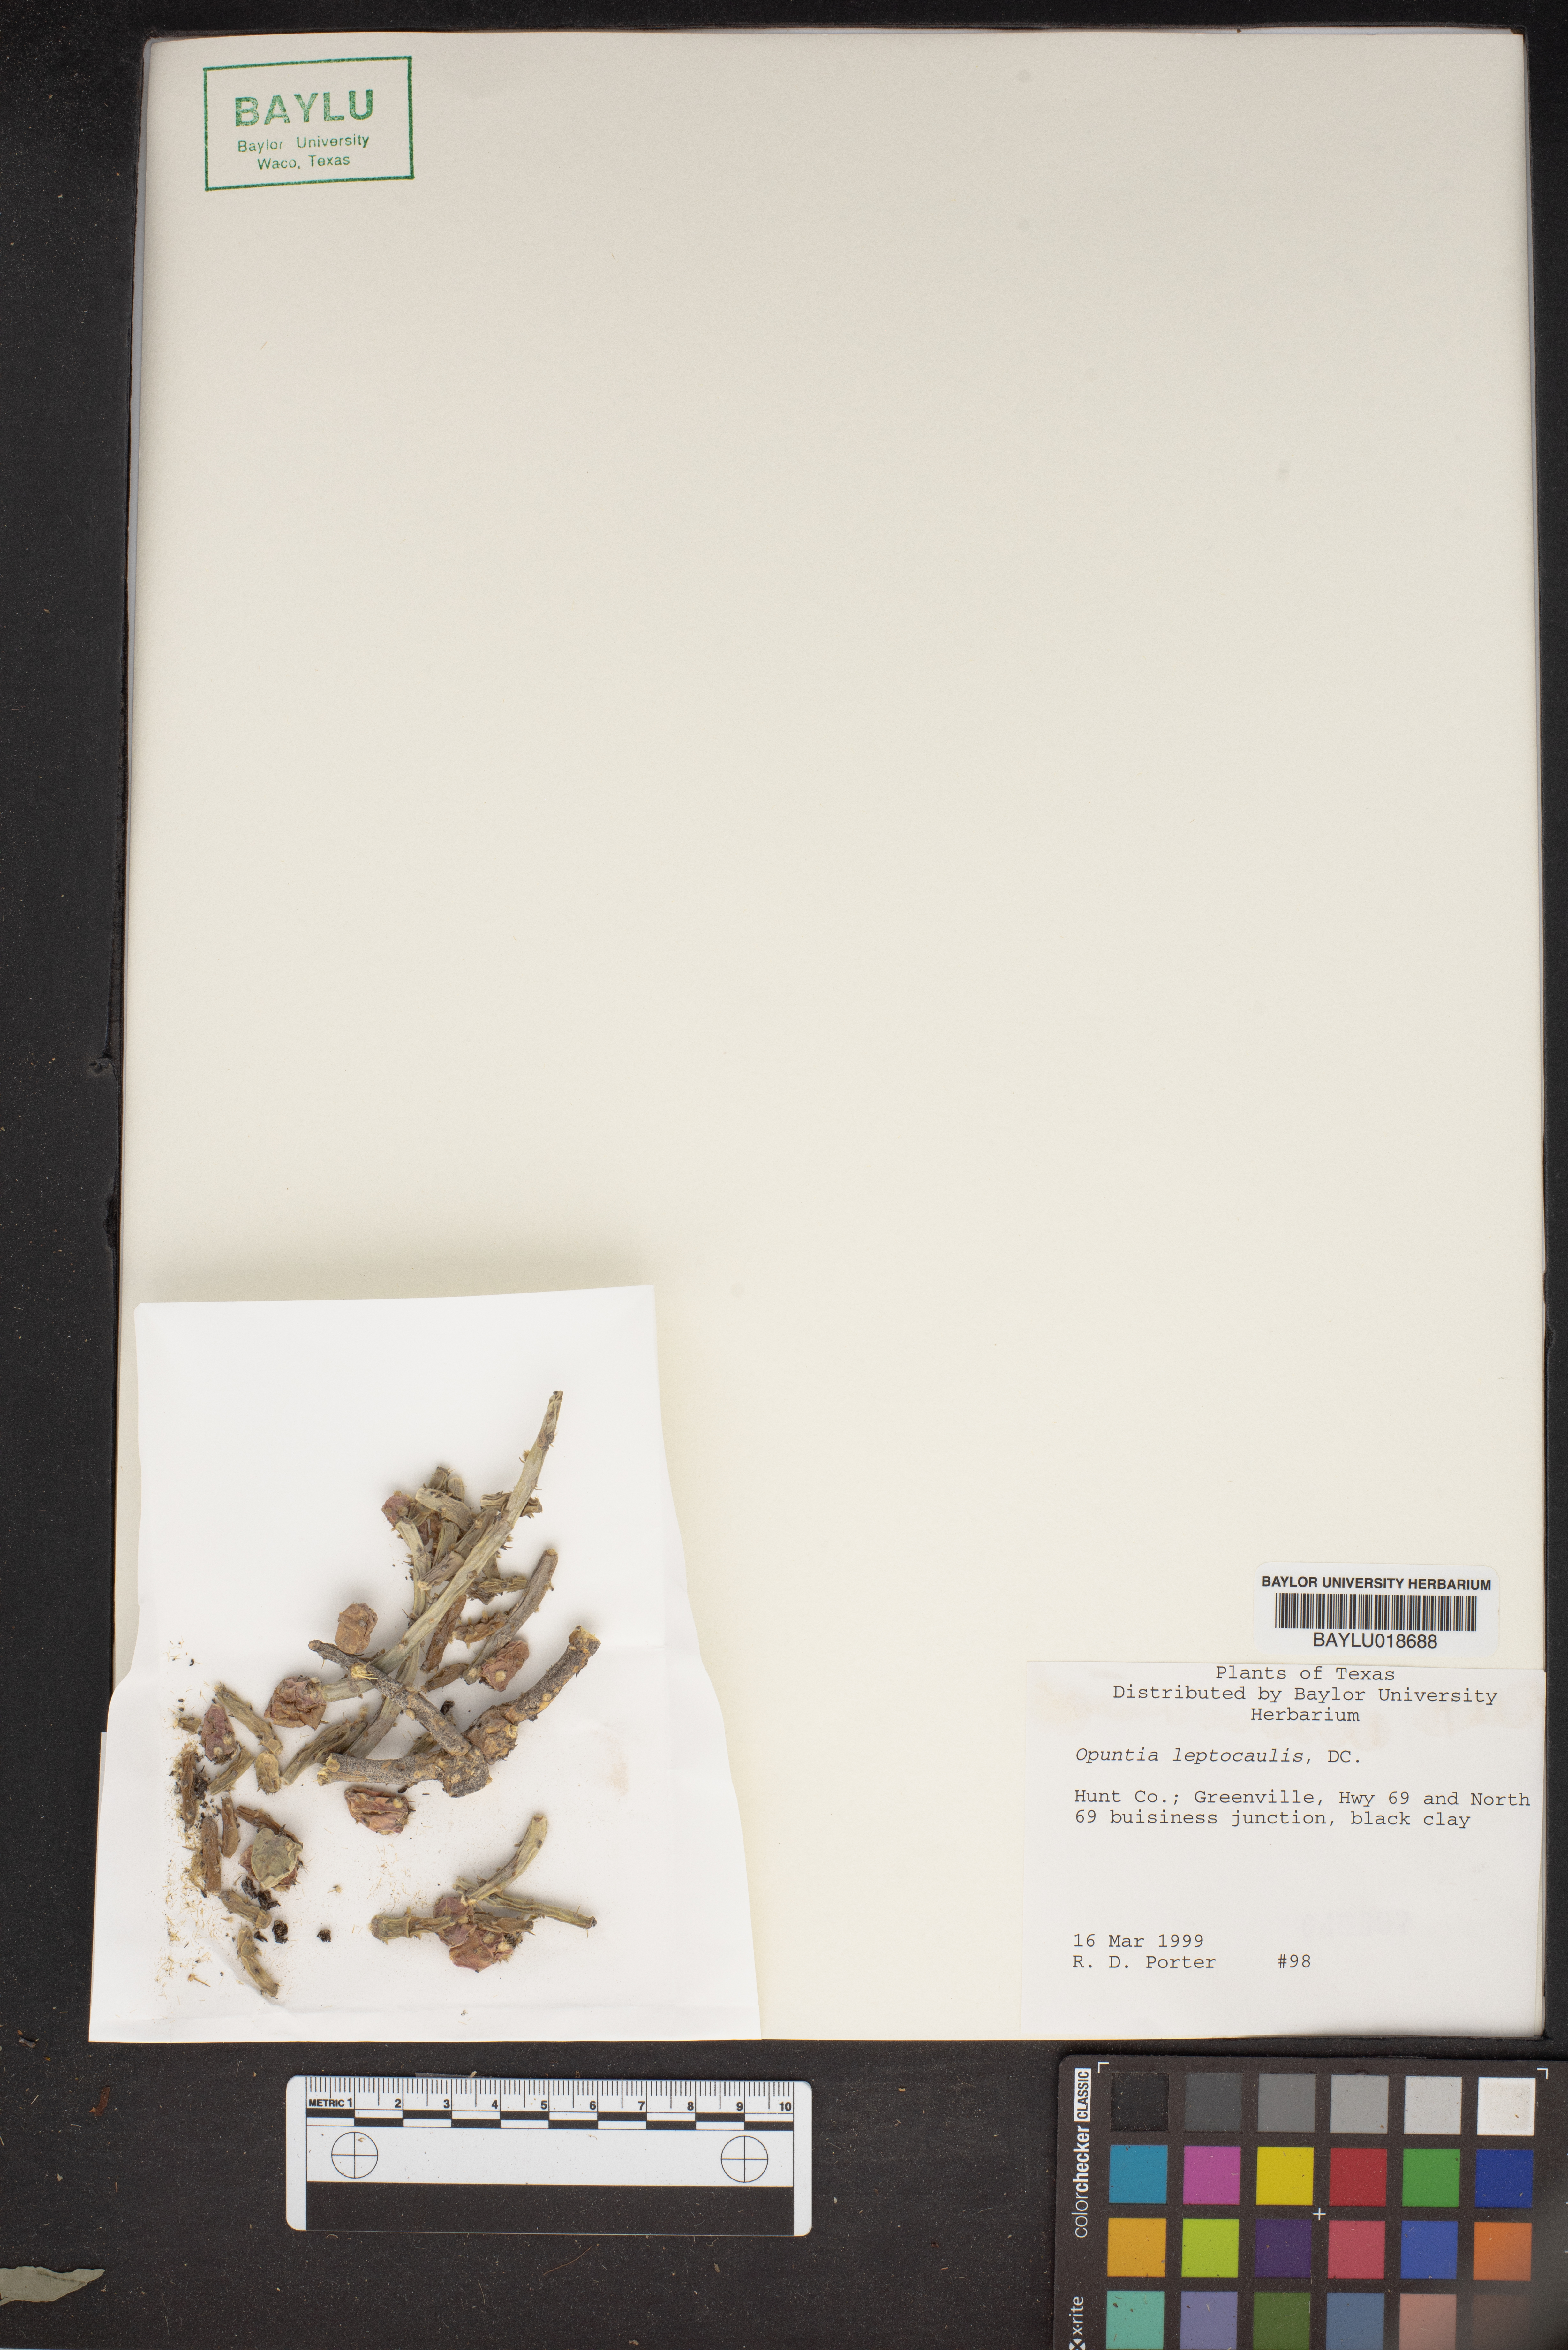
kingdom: Plantae
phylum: Tracheophyta
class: Magnoliopsida
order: Caryophyllales
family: Cactaceae
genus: Cylindropuntia
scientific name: Cylindropuntia leptocaulis
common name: Christmas cactus
